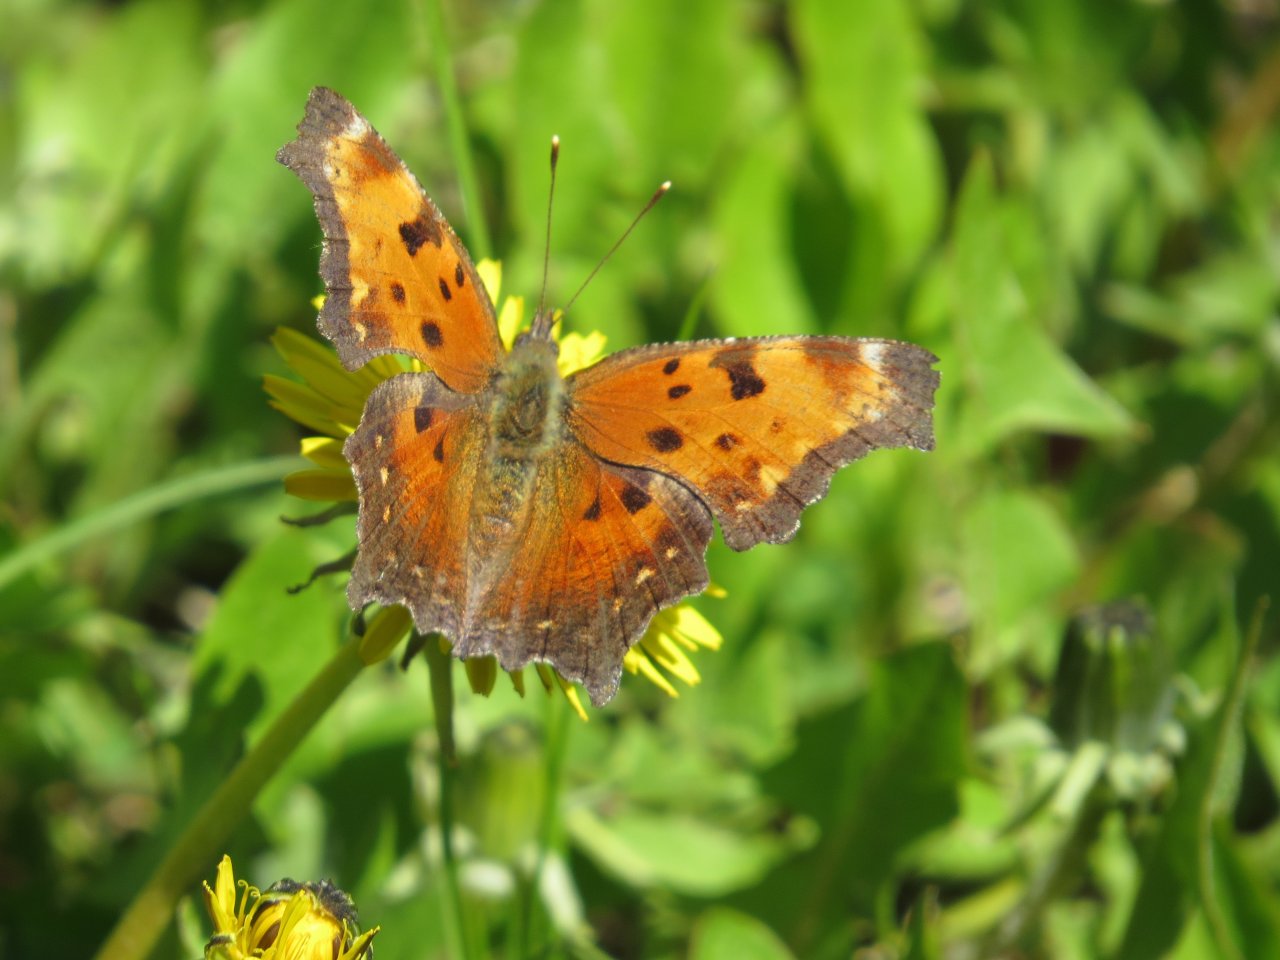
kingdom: Animalia
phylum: Arthropoda
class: Insecta
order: Lepidoptera
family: Nymphalidae
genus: Polygonia
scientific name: Polygonia progne
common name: Gray Comma
